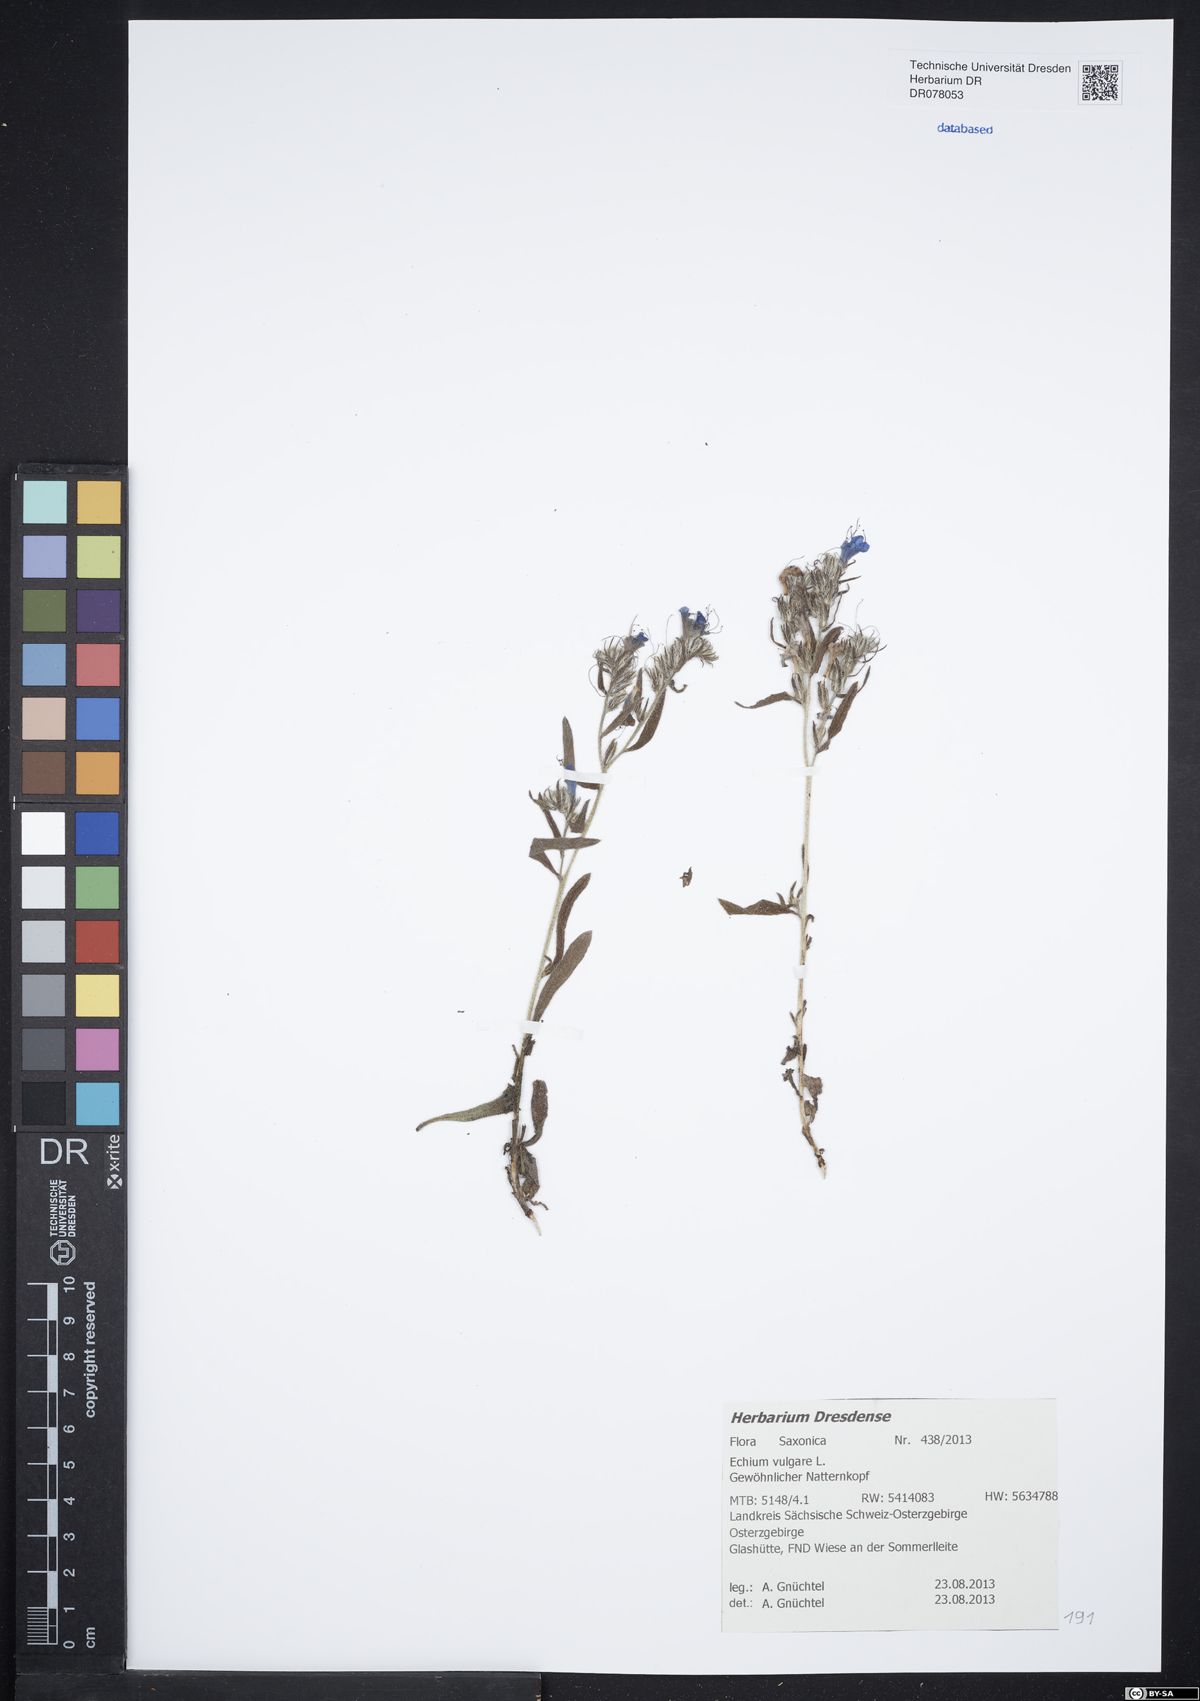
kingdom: Plantae
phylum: Tracheophyta
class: Magnoliopsida
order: Boraginales
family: Boraginaceae
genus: Echium
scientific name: Echium vulgare
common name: Common viper's bugloss
